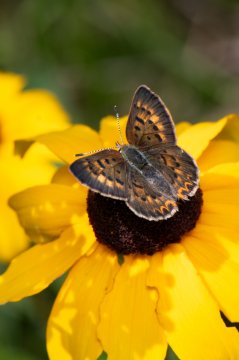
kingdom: Animalia
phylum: Arthropoda
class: Insecta
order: Lepidoptera
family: Lycaenidae
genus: Epidemia
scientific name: Epidemia dorcas
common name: Dorcas Copper
